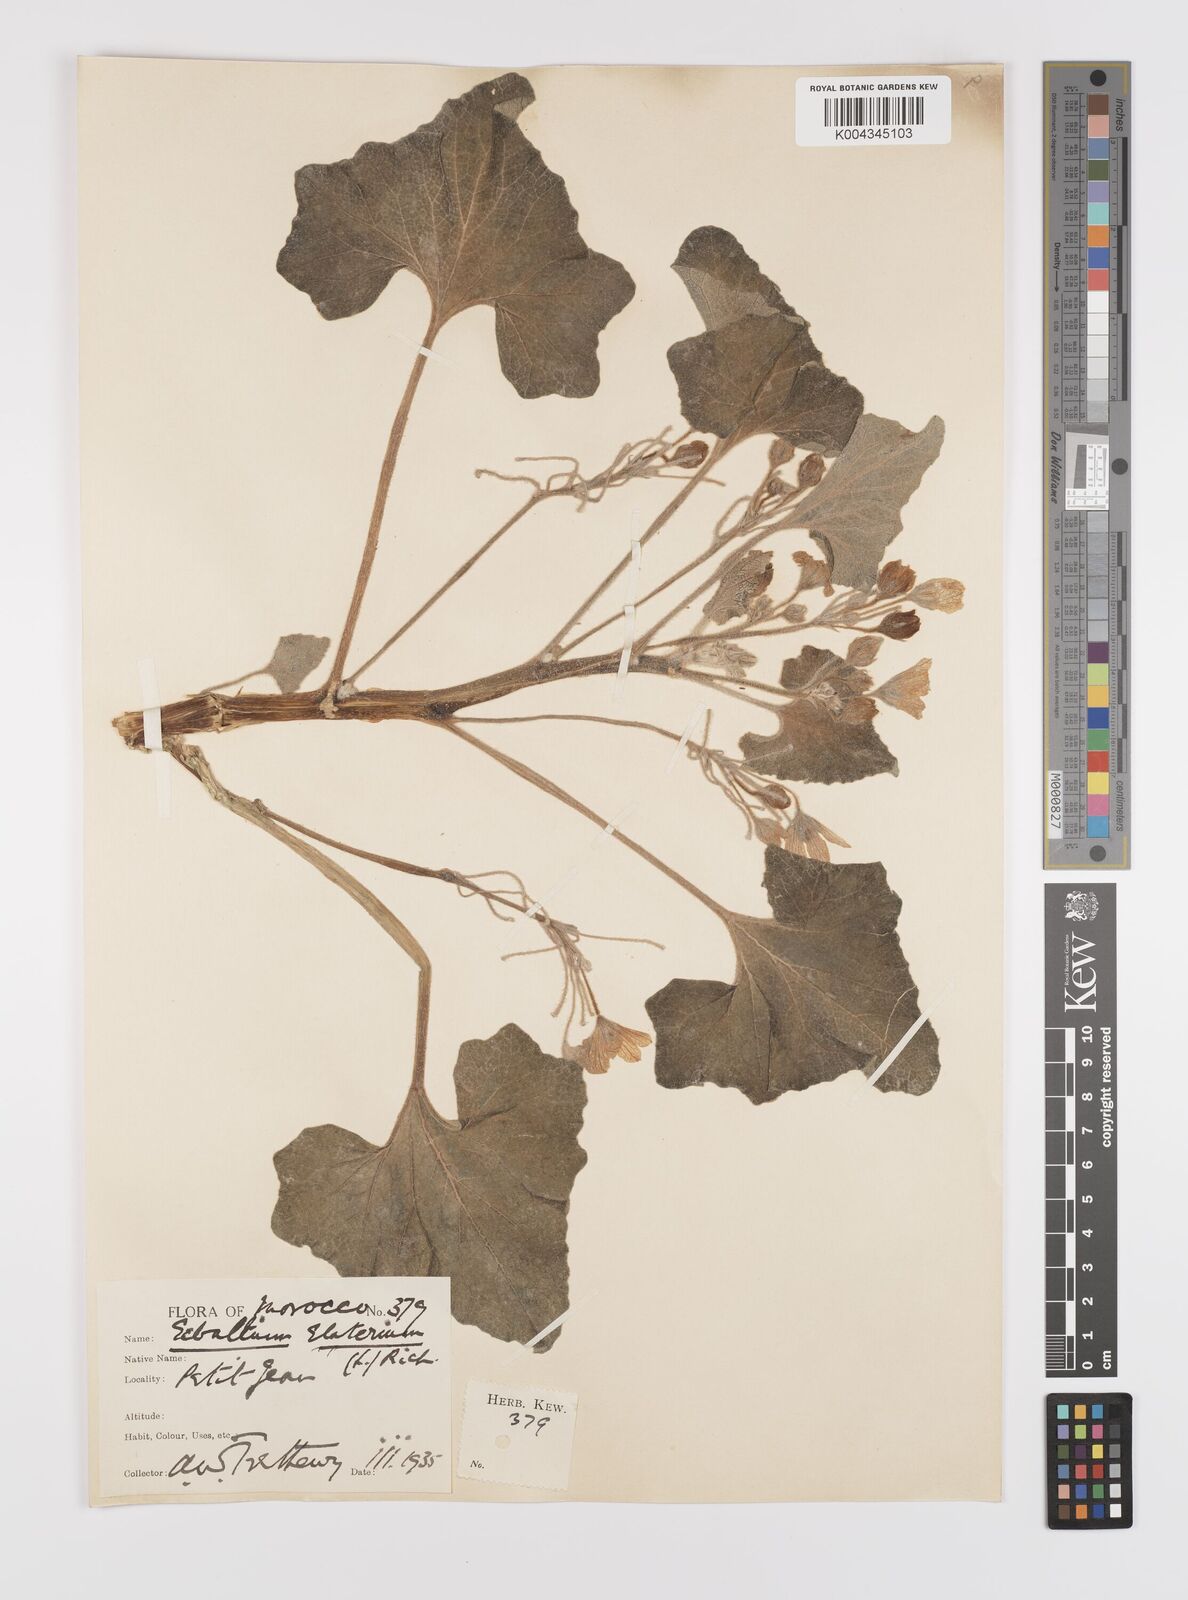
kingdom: Plantae
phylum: Tracheophyta
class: Magnoliopsida
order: Cucurbitales
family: Cucurbitaceae
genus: Ecballium
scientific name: Ecballium elaterium
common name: Squirting cucumber
